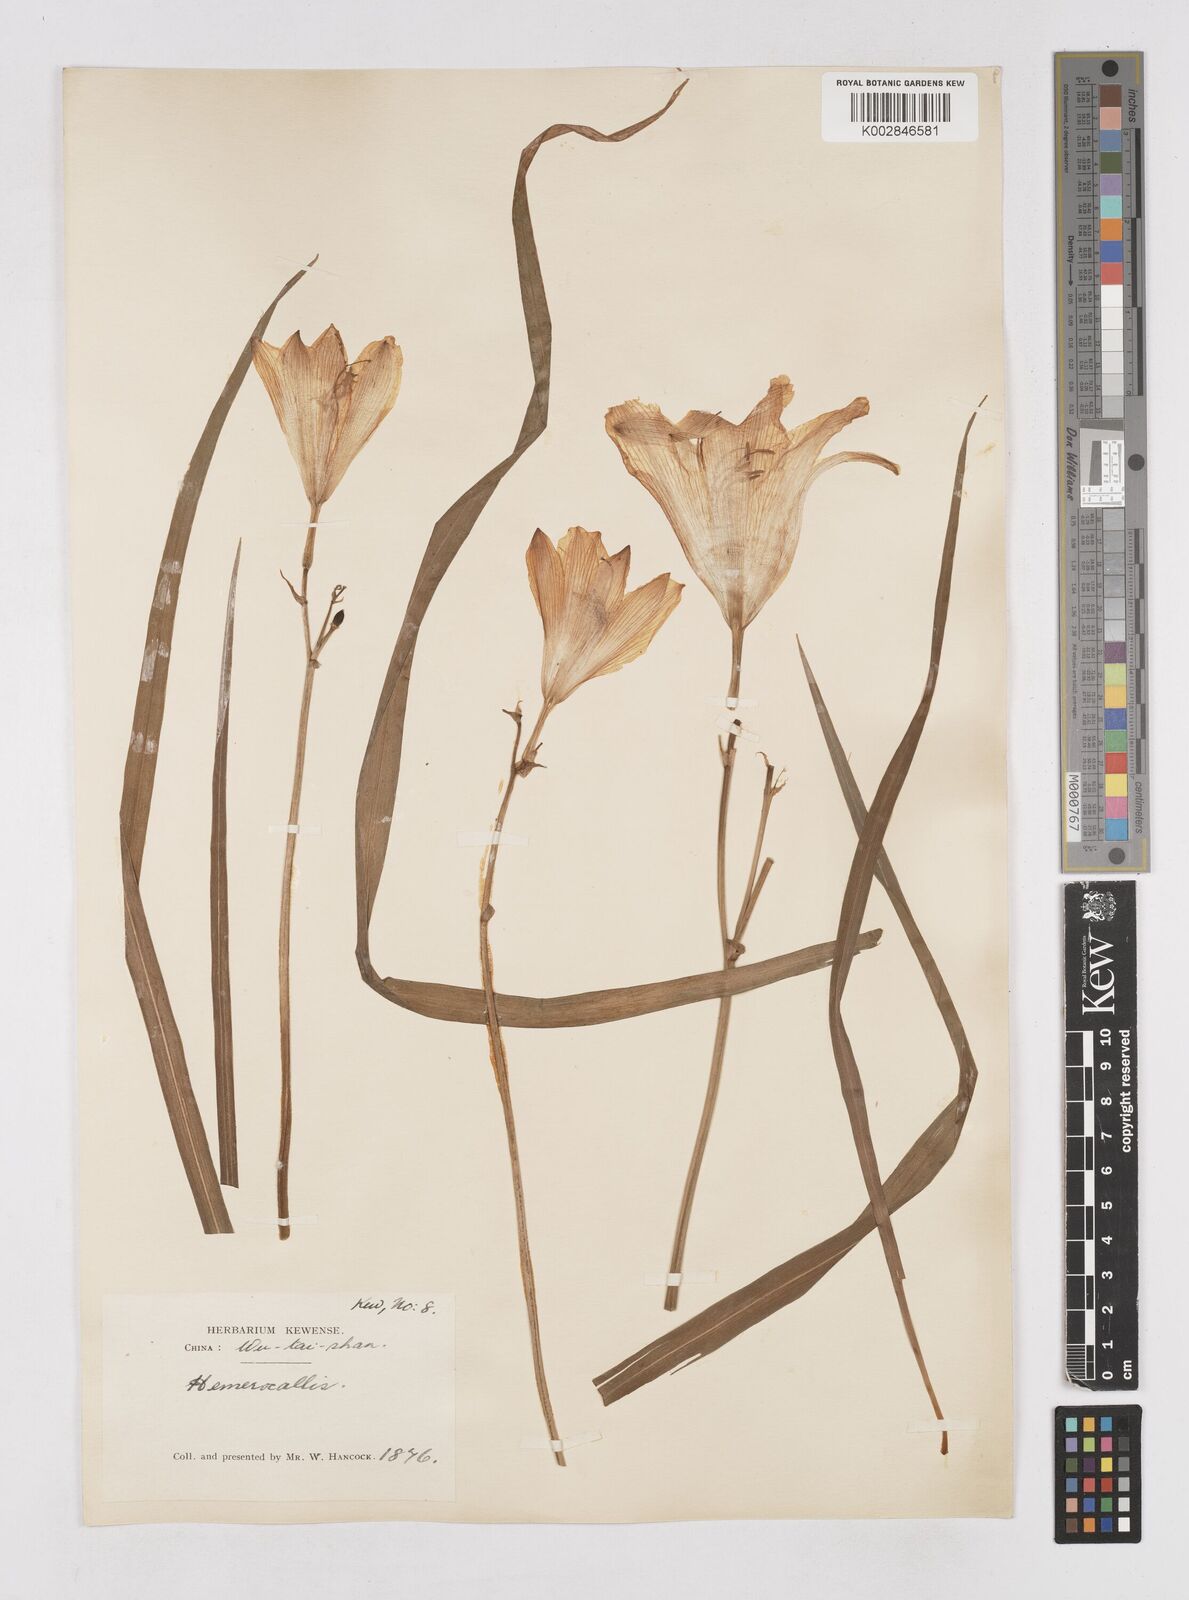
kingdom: Plantae
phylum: Tracheophyta
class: Liliopsida
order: Asparagales
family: Asphodelaceae
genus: Hemerocallis
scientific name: Hemerocallis minor
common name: Small daylily
